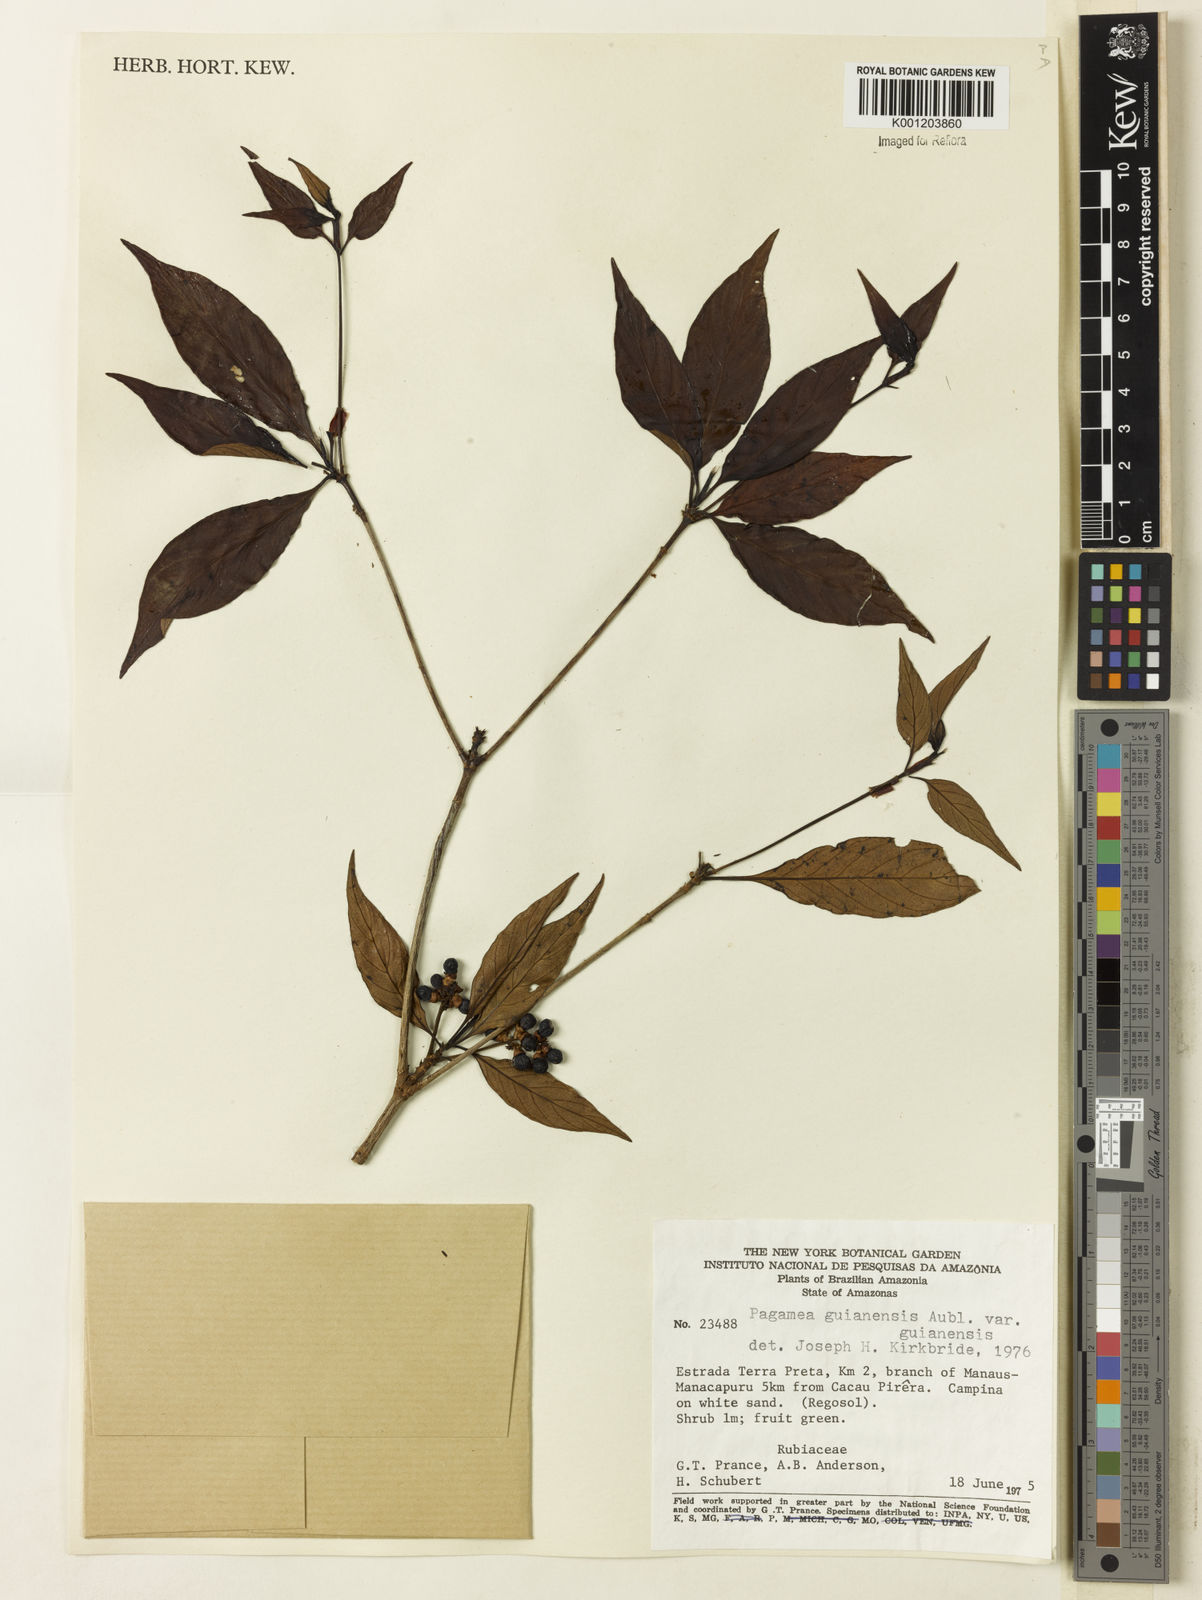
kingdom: Plantae
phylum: Tracheophyta
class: Magnoliopsida
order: Gentianales
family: Rubiaceae
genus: Pagamea
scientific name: Pagamea guianensis
